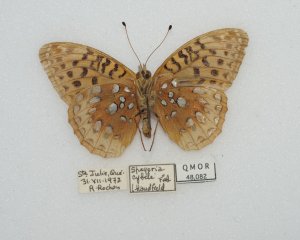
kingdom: Animalia
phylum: Arthropoda
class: Insecta
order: Lepidoptera
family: Nymphalidae
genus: Speyeria
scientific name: Speyeria cybele
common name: Great Spangled Fritillary
